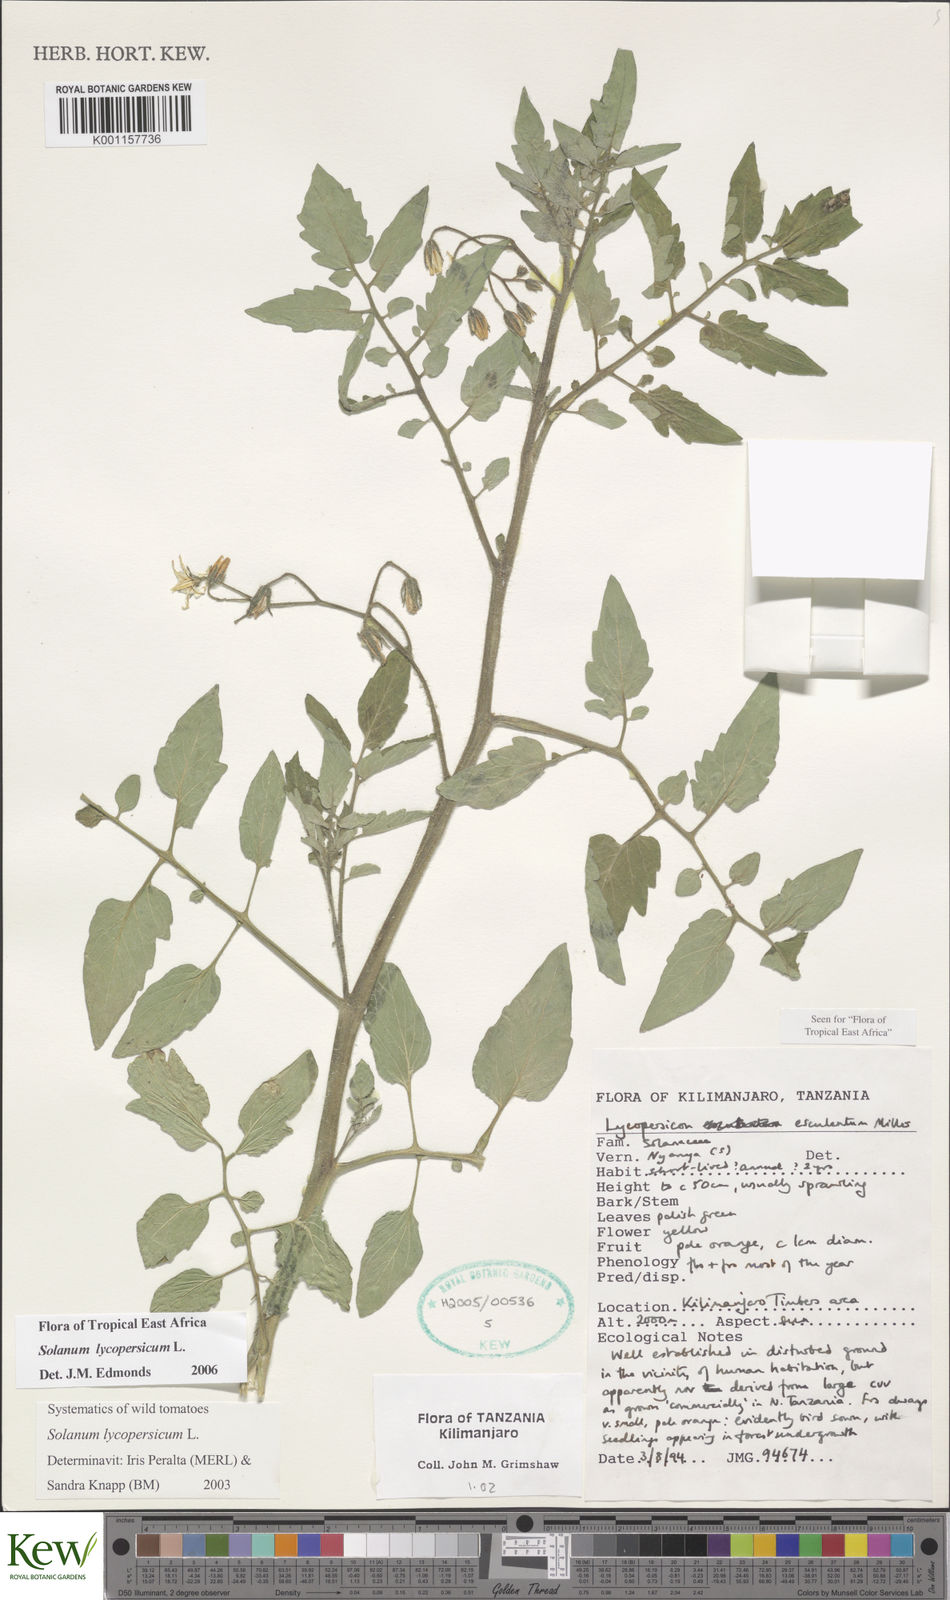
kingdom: Plantae
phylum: Tracheophyta
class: Magnoliopsida
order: Solanales
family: Solanaceae
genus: Solanum
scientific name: Solanum lycopersicum
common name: Garden tomato
